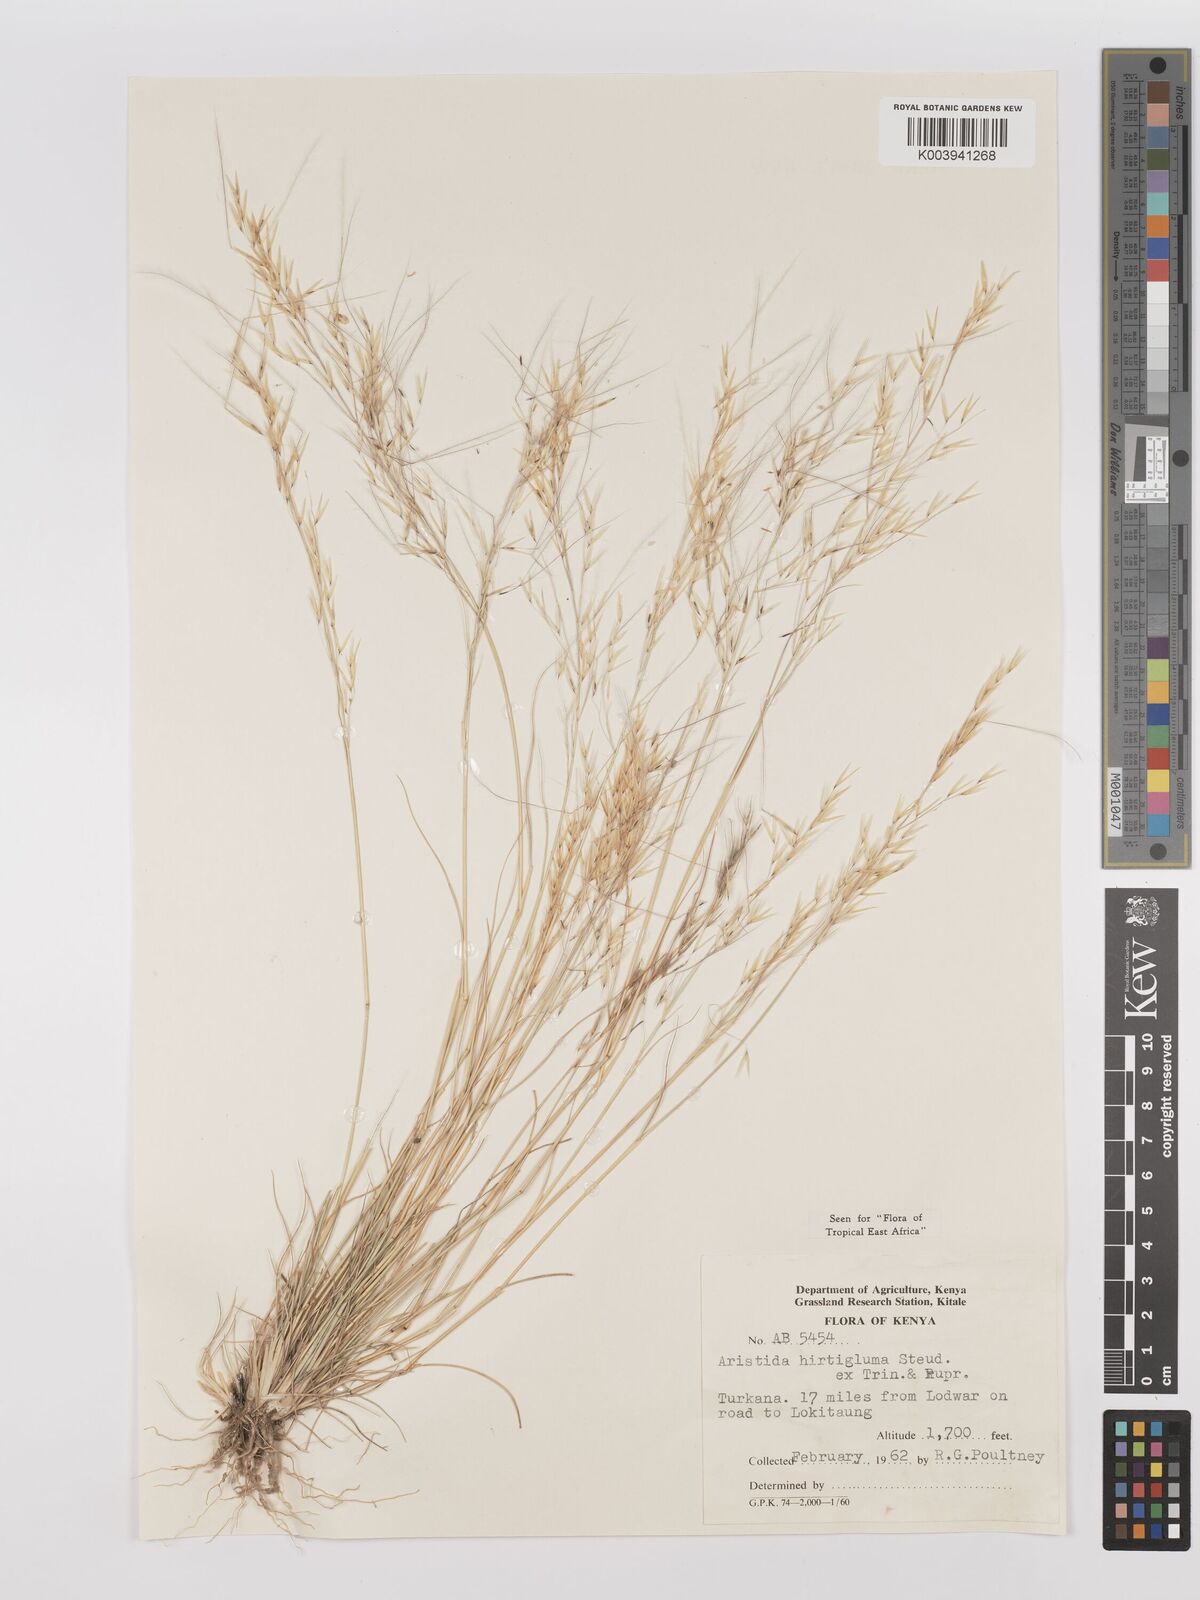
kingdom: Plantae
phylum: Tracheophyta
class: Liliopsida
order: Poales
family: Poaceae
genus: Stipagrostis
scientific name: Stipagrostis hirtigluma
